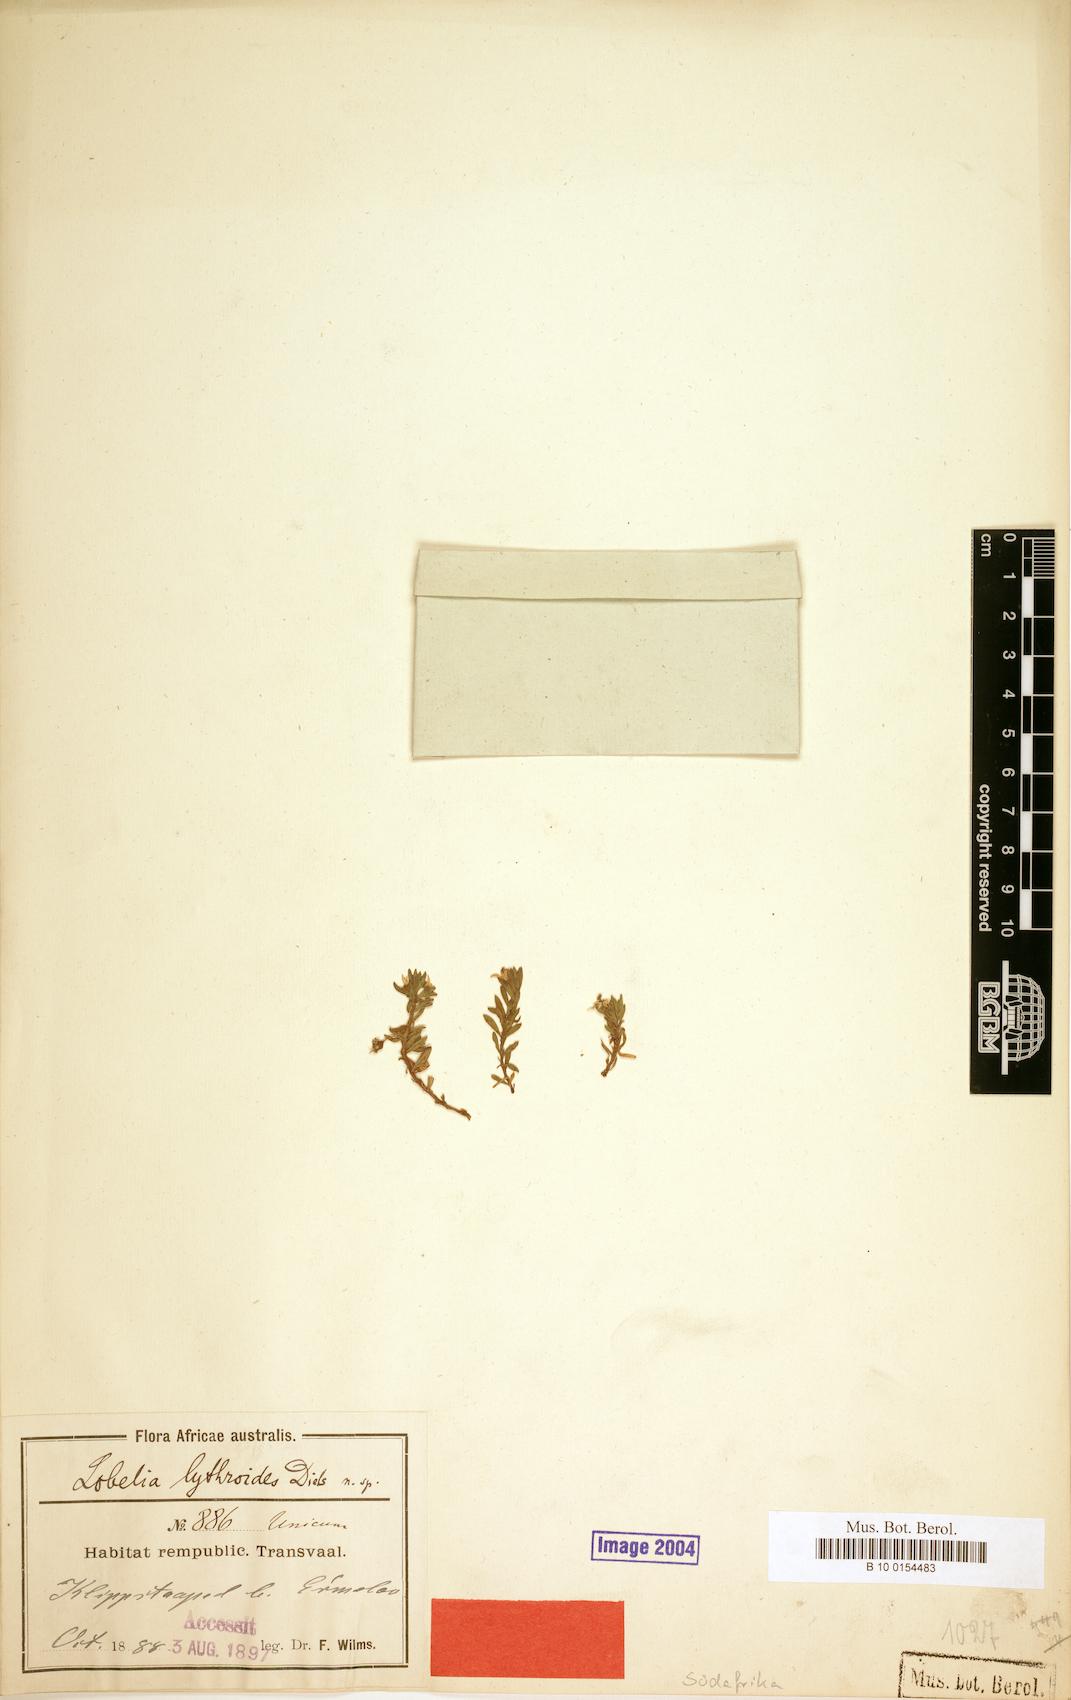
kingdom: Plantae
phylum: Tracheophyta
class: Magnoliopsida
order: Asterales
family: Campanulaceae
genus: Monopsis
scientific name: Monopsis debilis
